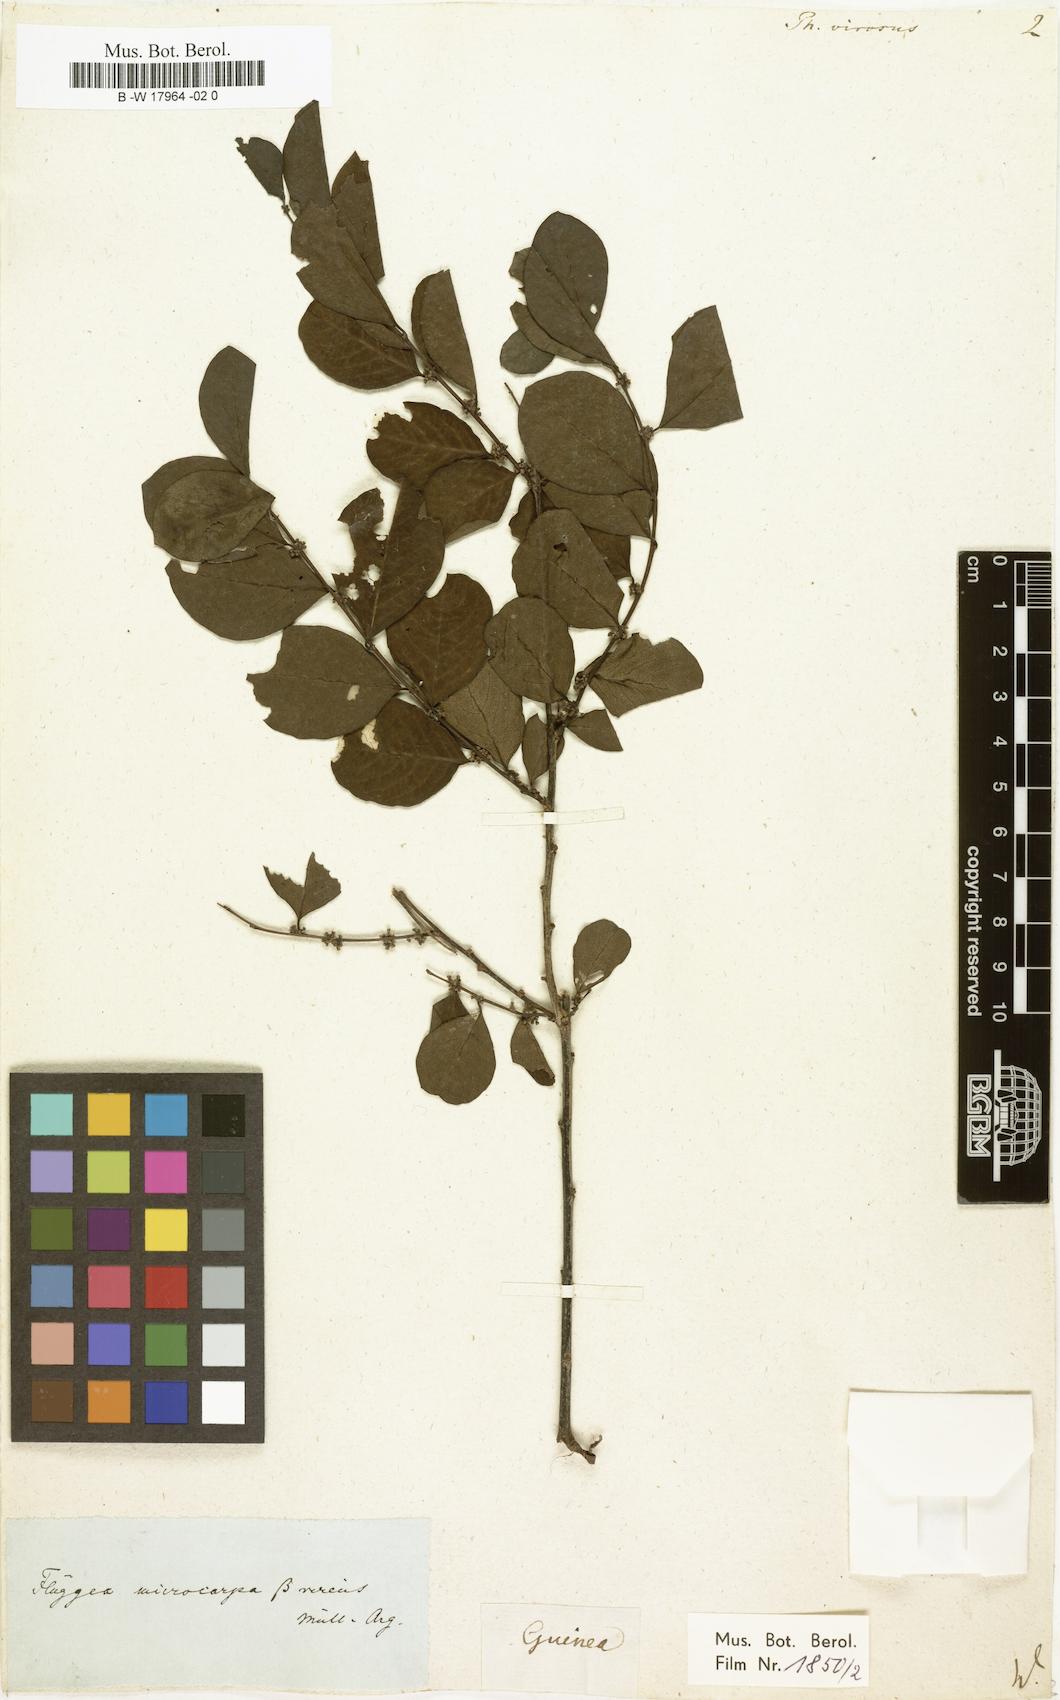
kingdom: Plantae
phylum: Tracheophyta
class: Magnoliopsida
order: Malpighiales
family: Phyllanthaceae
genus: Phyllanthus
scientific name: Phyllanthus virosus
